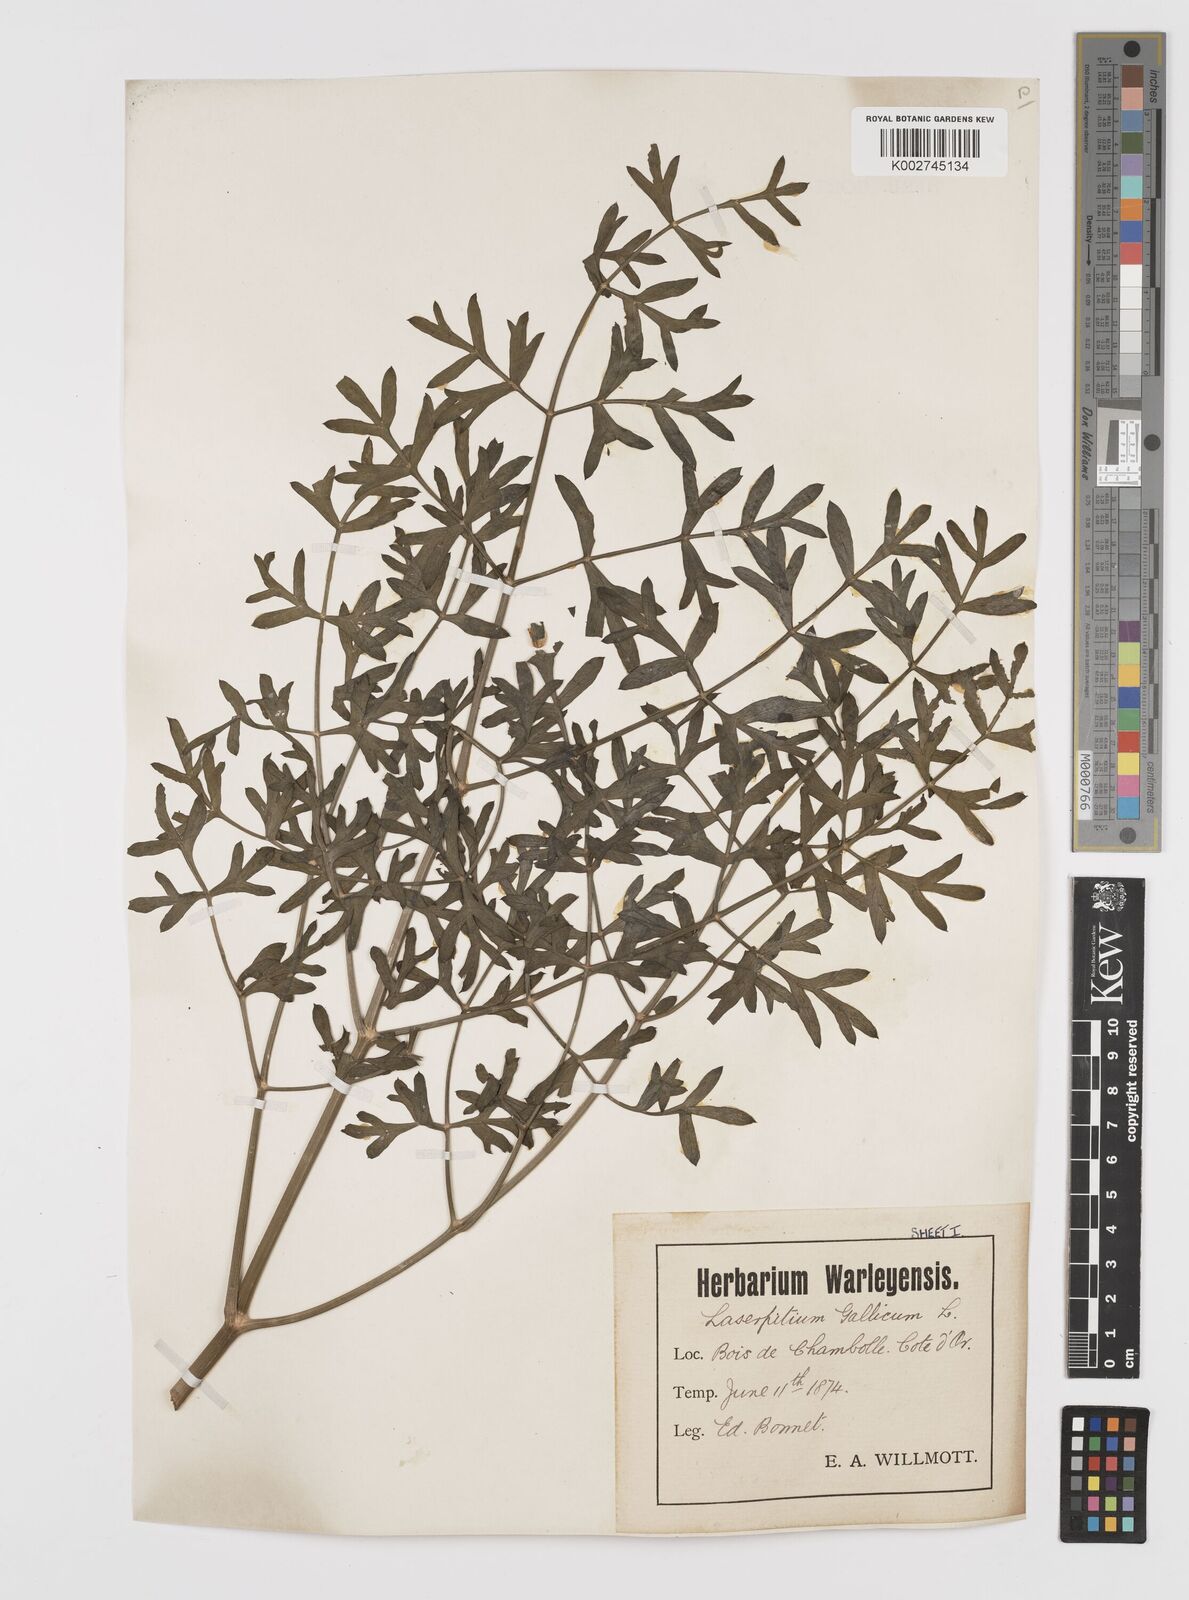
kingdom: Plantae
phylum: Tracheophyta
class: Magnoliopsida
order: Apiales
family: Apiaceae
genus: Laserpitium
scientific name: Laserpitium gallicum
